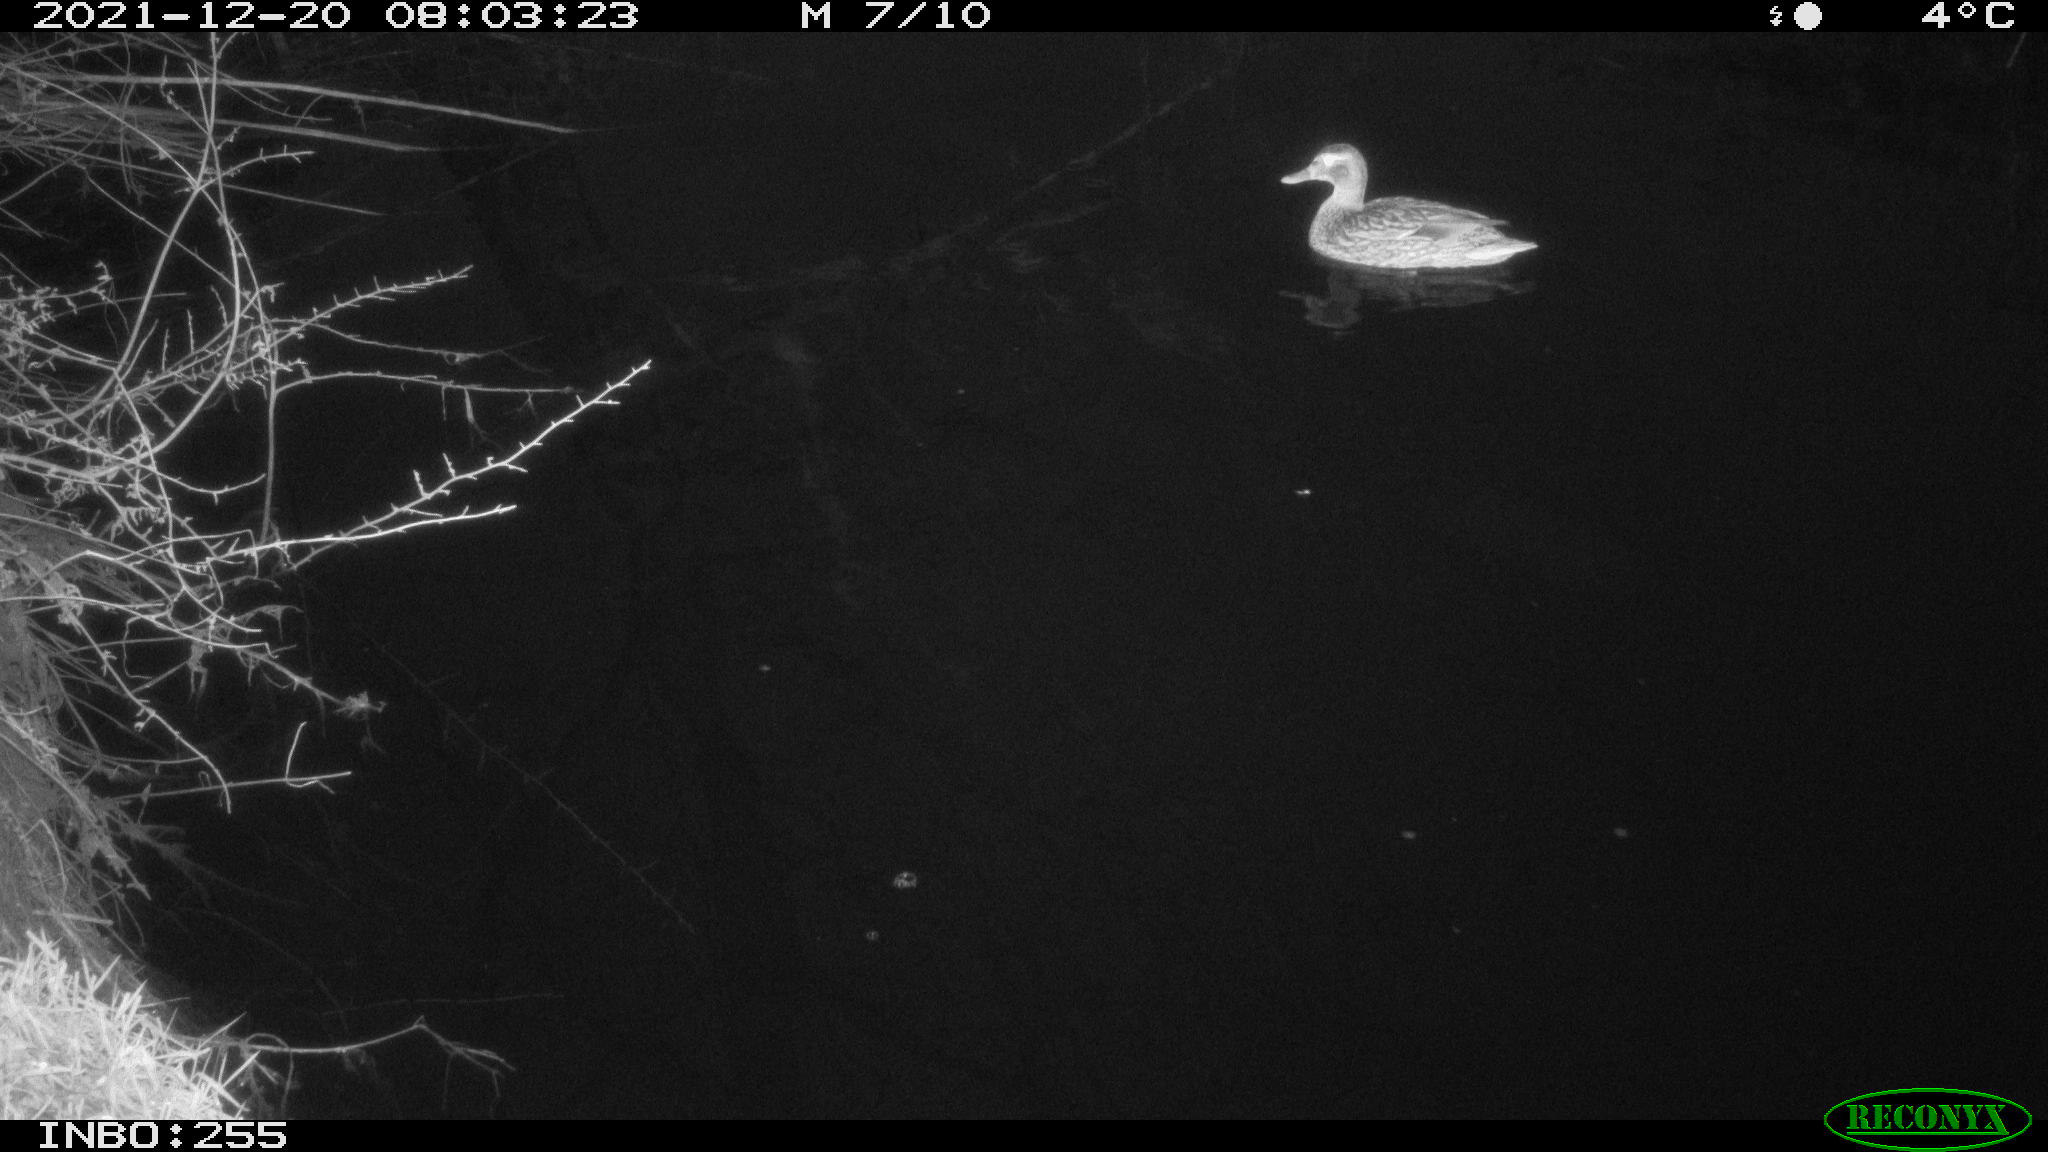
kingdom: Animalia
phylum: Chordata
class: Aves
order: Anseriformes
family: Anatidae
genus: Anas
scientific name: Anas
